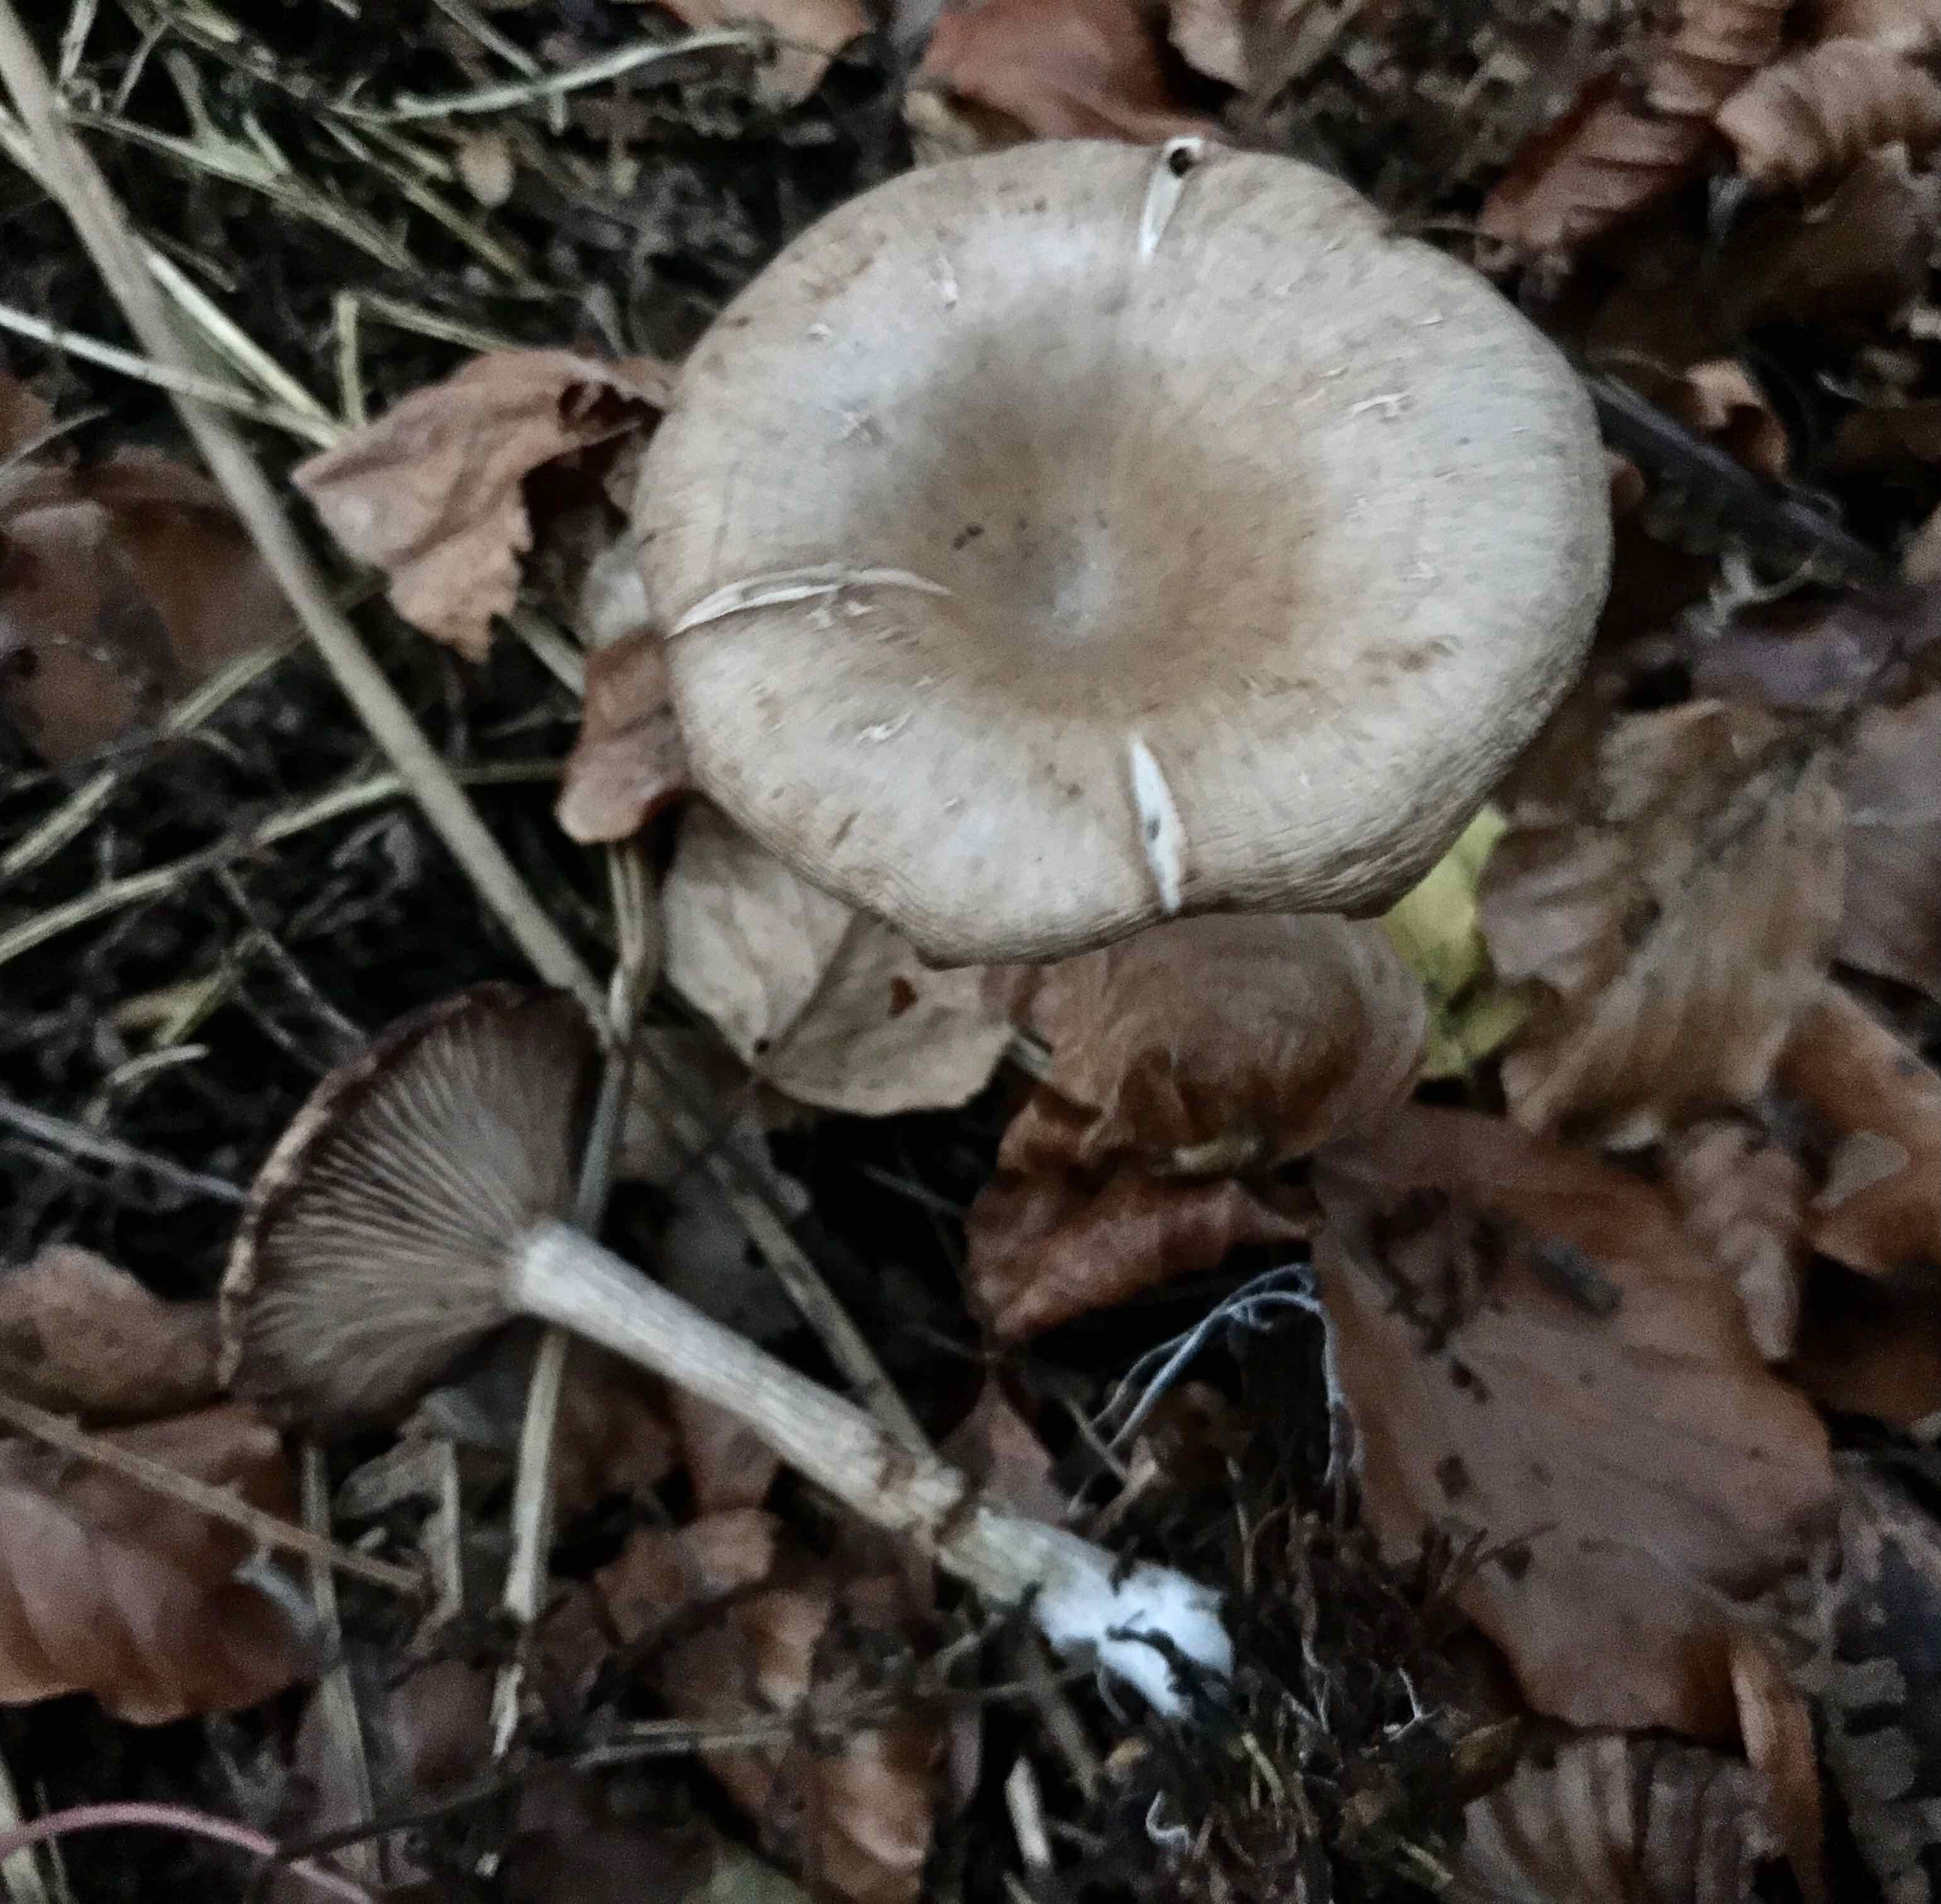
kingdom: Fungi
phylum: Basidiomycota
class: Agaricomycetes
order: Agaricales
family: Pseudoclitocybaceae
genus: Pseudoclitocybe
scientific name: Pseudoclitocybe cyathiformis
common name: almindelig bægertragthat
